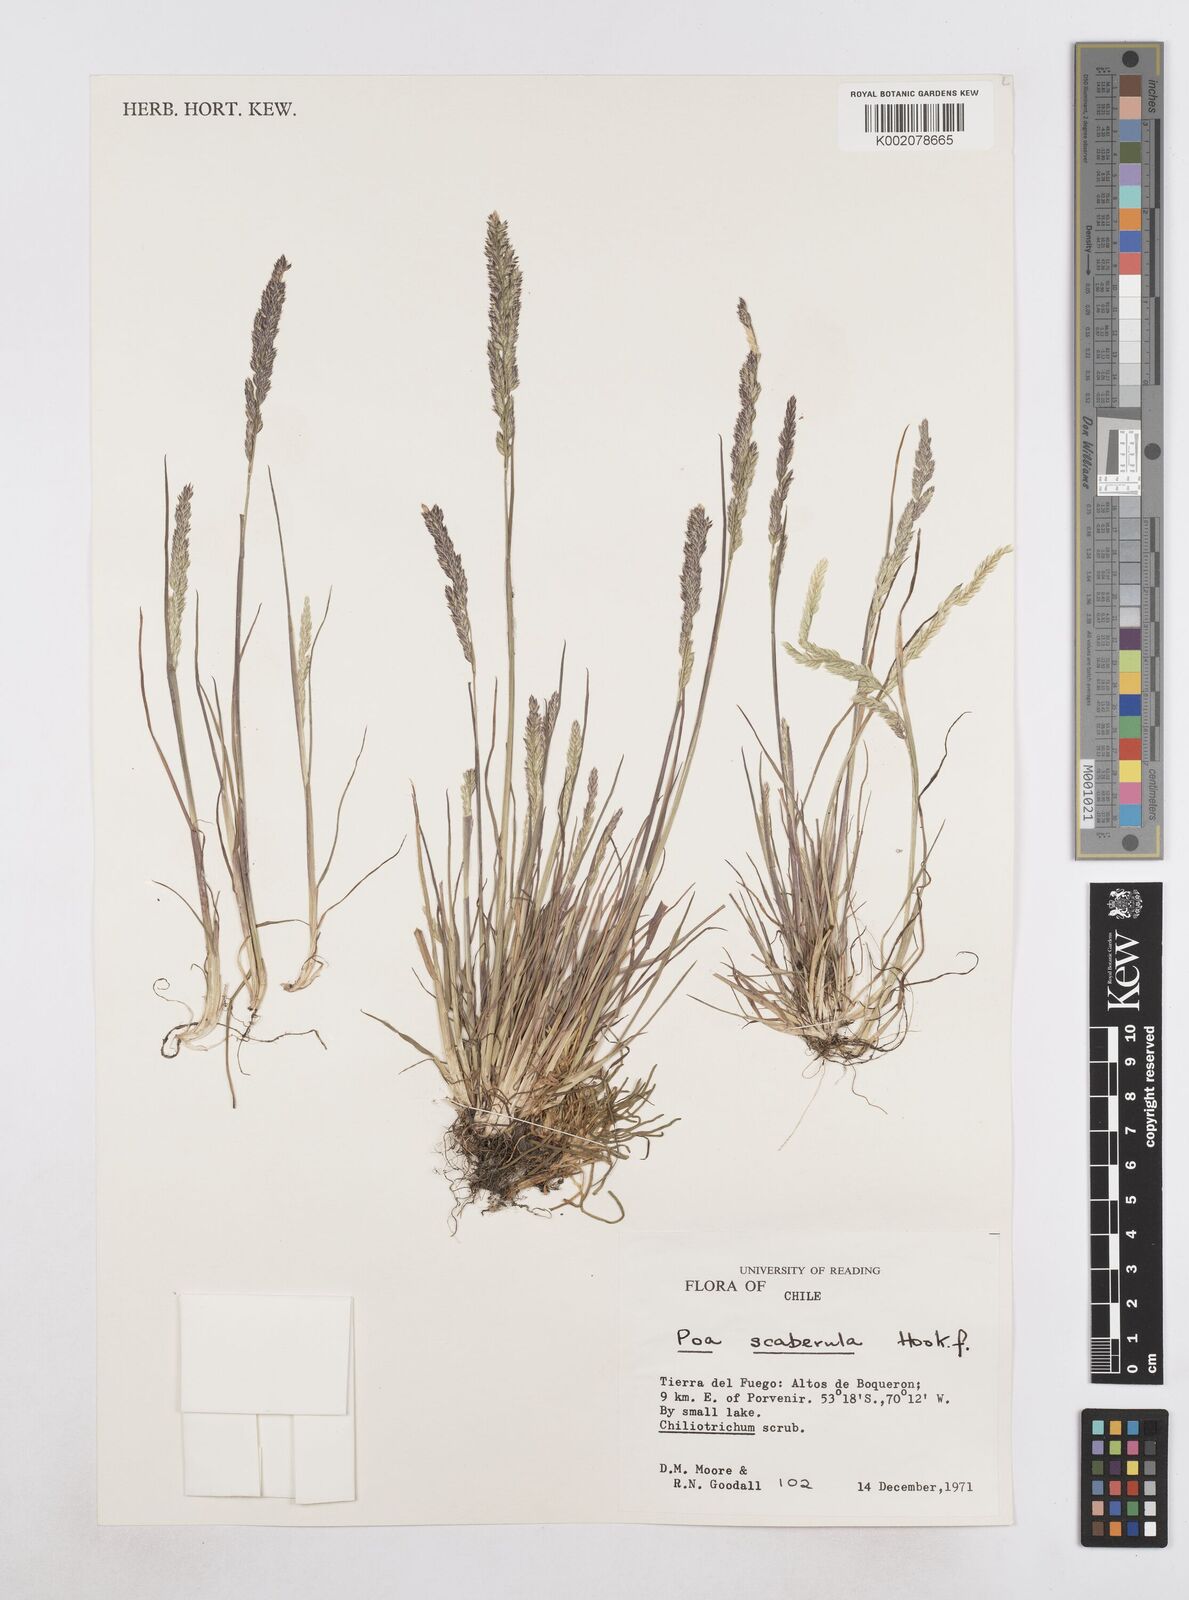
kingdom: Plantae
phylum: Tracheophyta
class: Liliopsida
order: Poales
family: Poaceae
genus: Poa
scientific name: Poa scaberula
